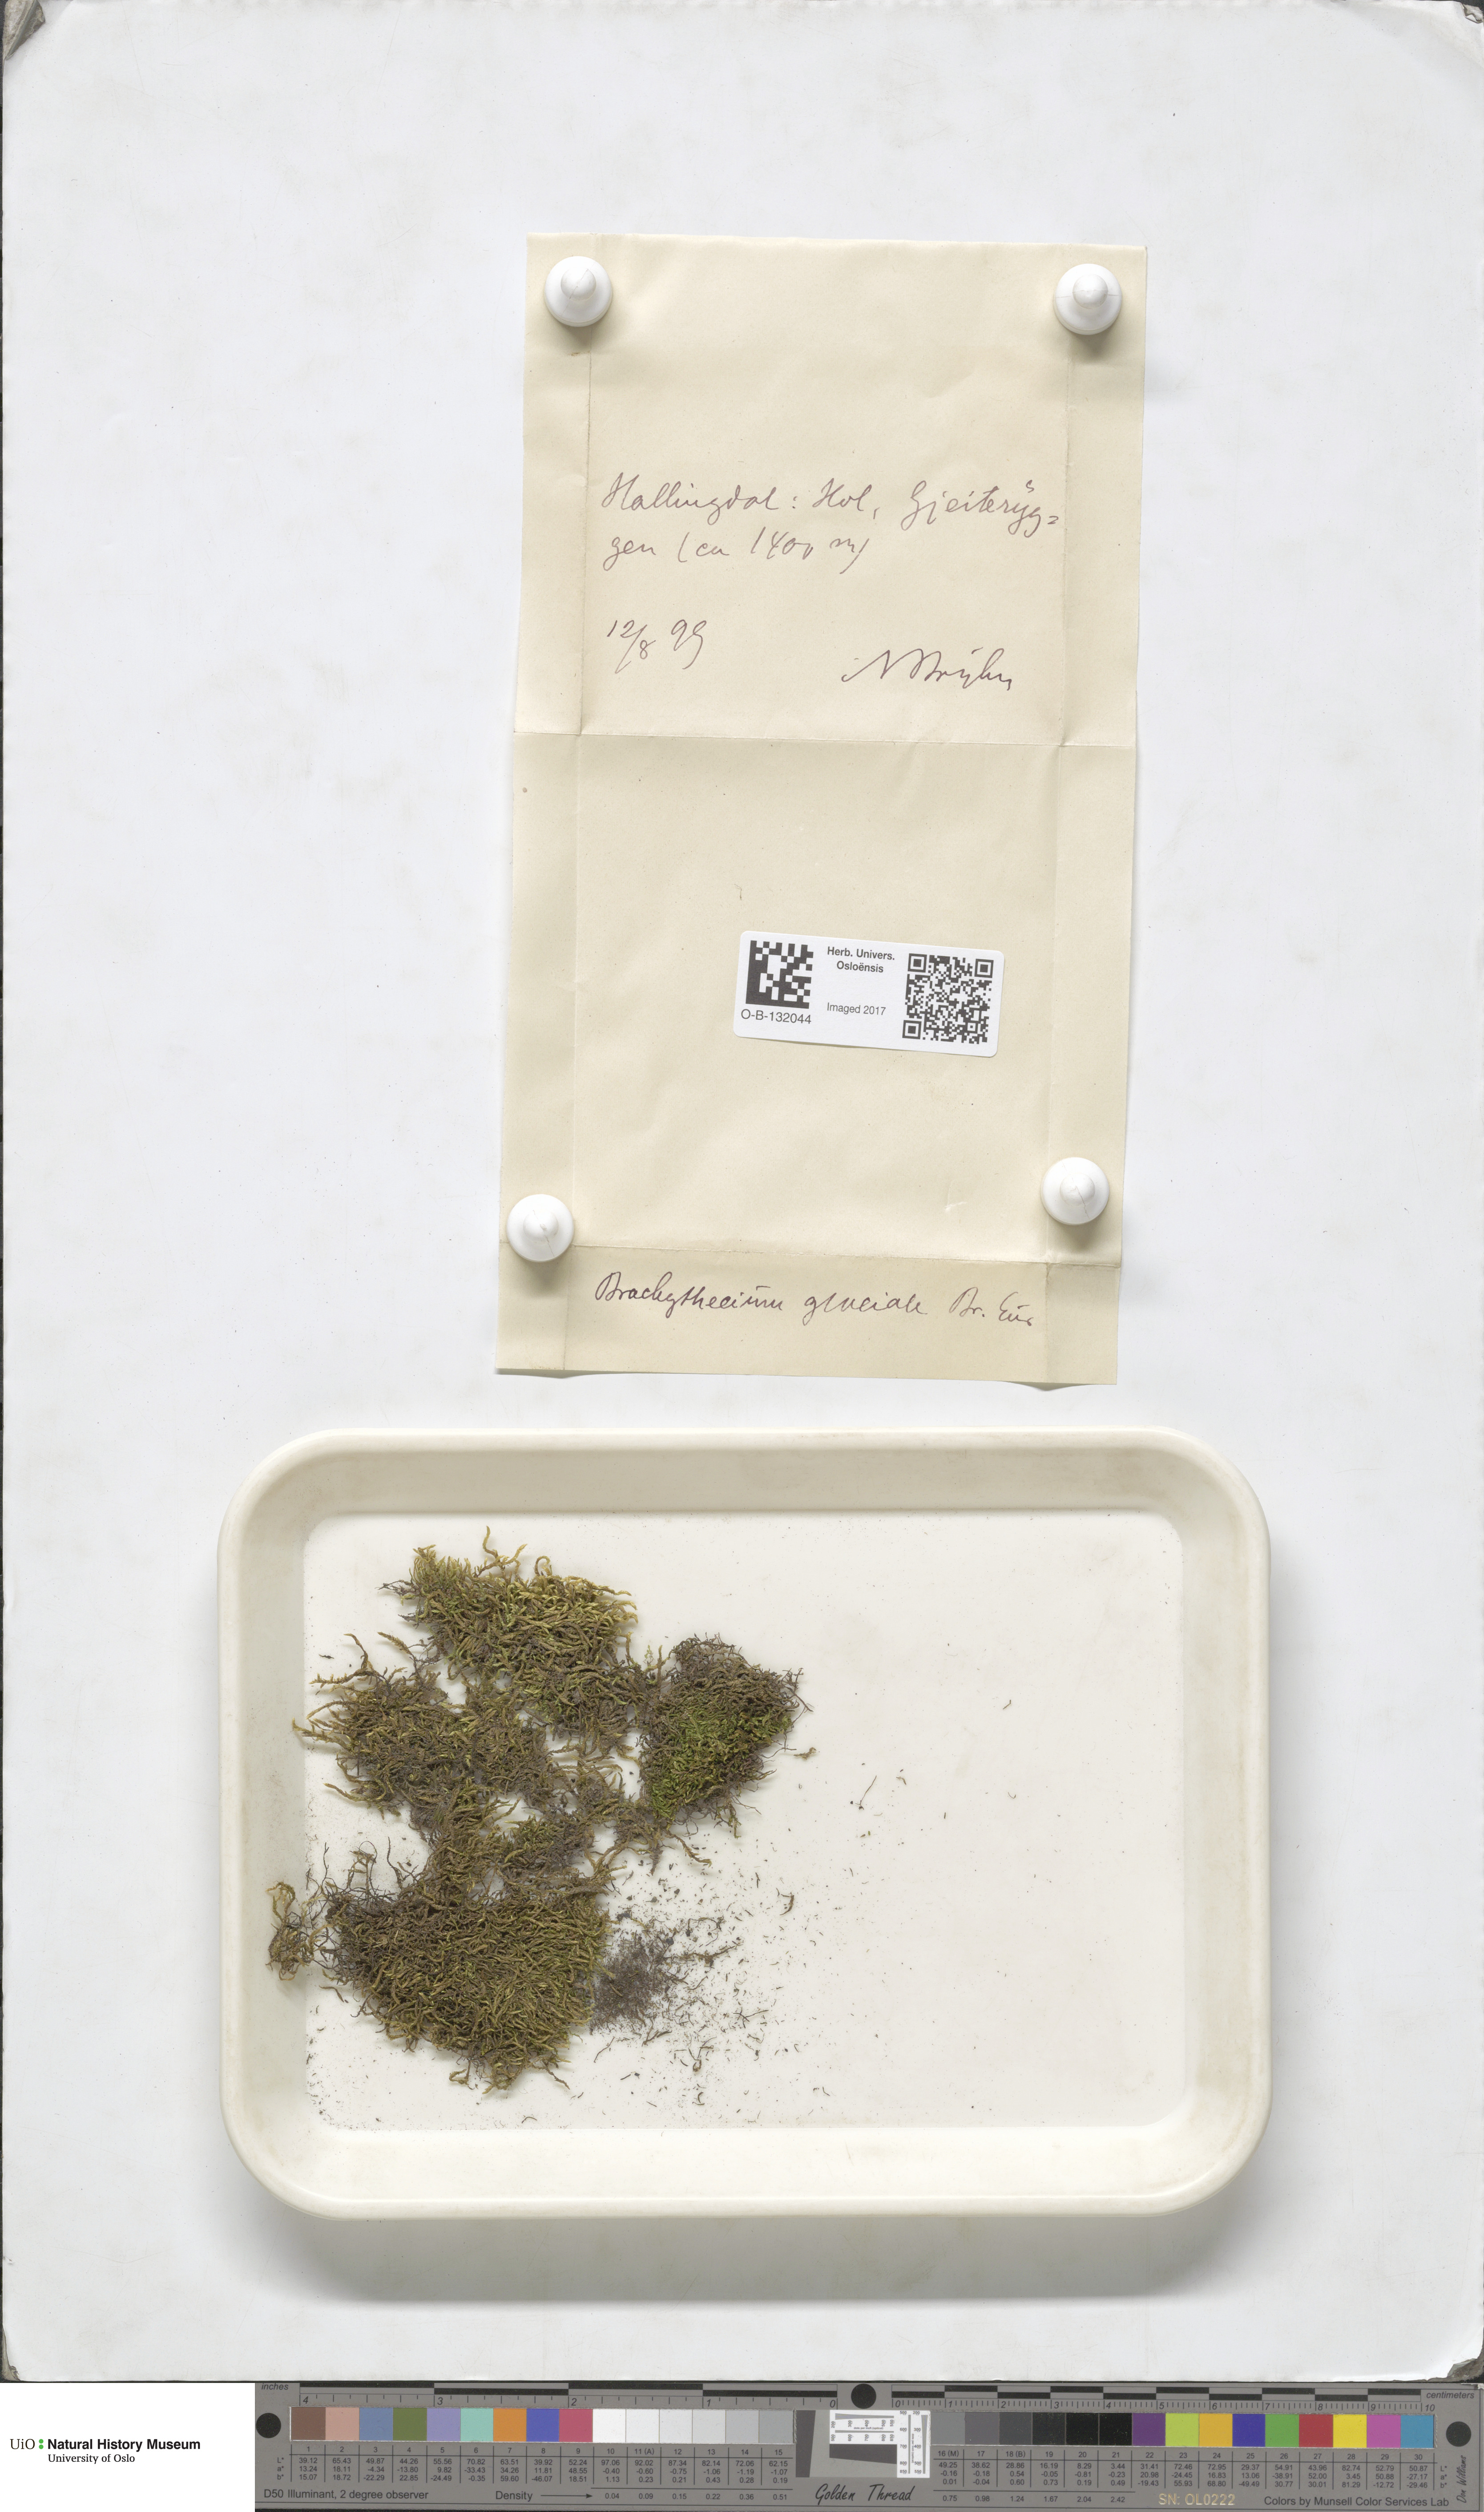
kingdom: Plantae
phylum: Bryophyta
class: Bryopsida
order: Hypnales
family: Brachytheciaceae
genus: Sciuro-hypnum
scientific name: Sciuro-hypnum glaciale
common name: Snow feather-moss
